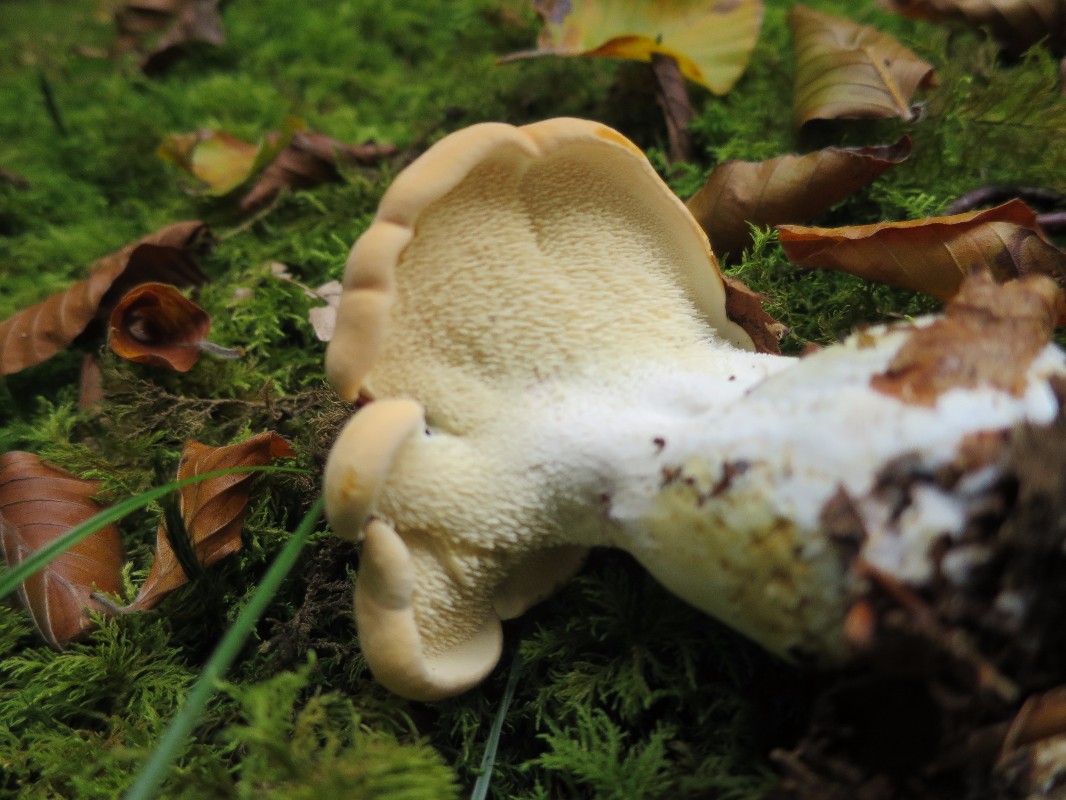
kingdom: Fungi
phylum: Basidiomycota
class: Agaricomycetes
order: Cantharellales
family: Hydnaceae
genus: Hydnum
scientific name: Hydnum
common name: pigsvamp
